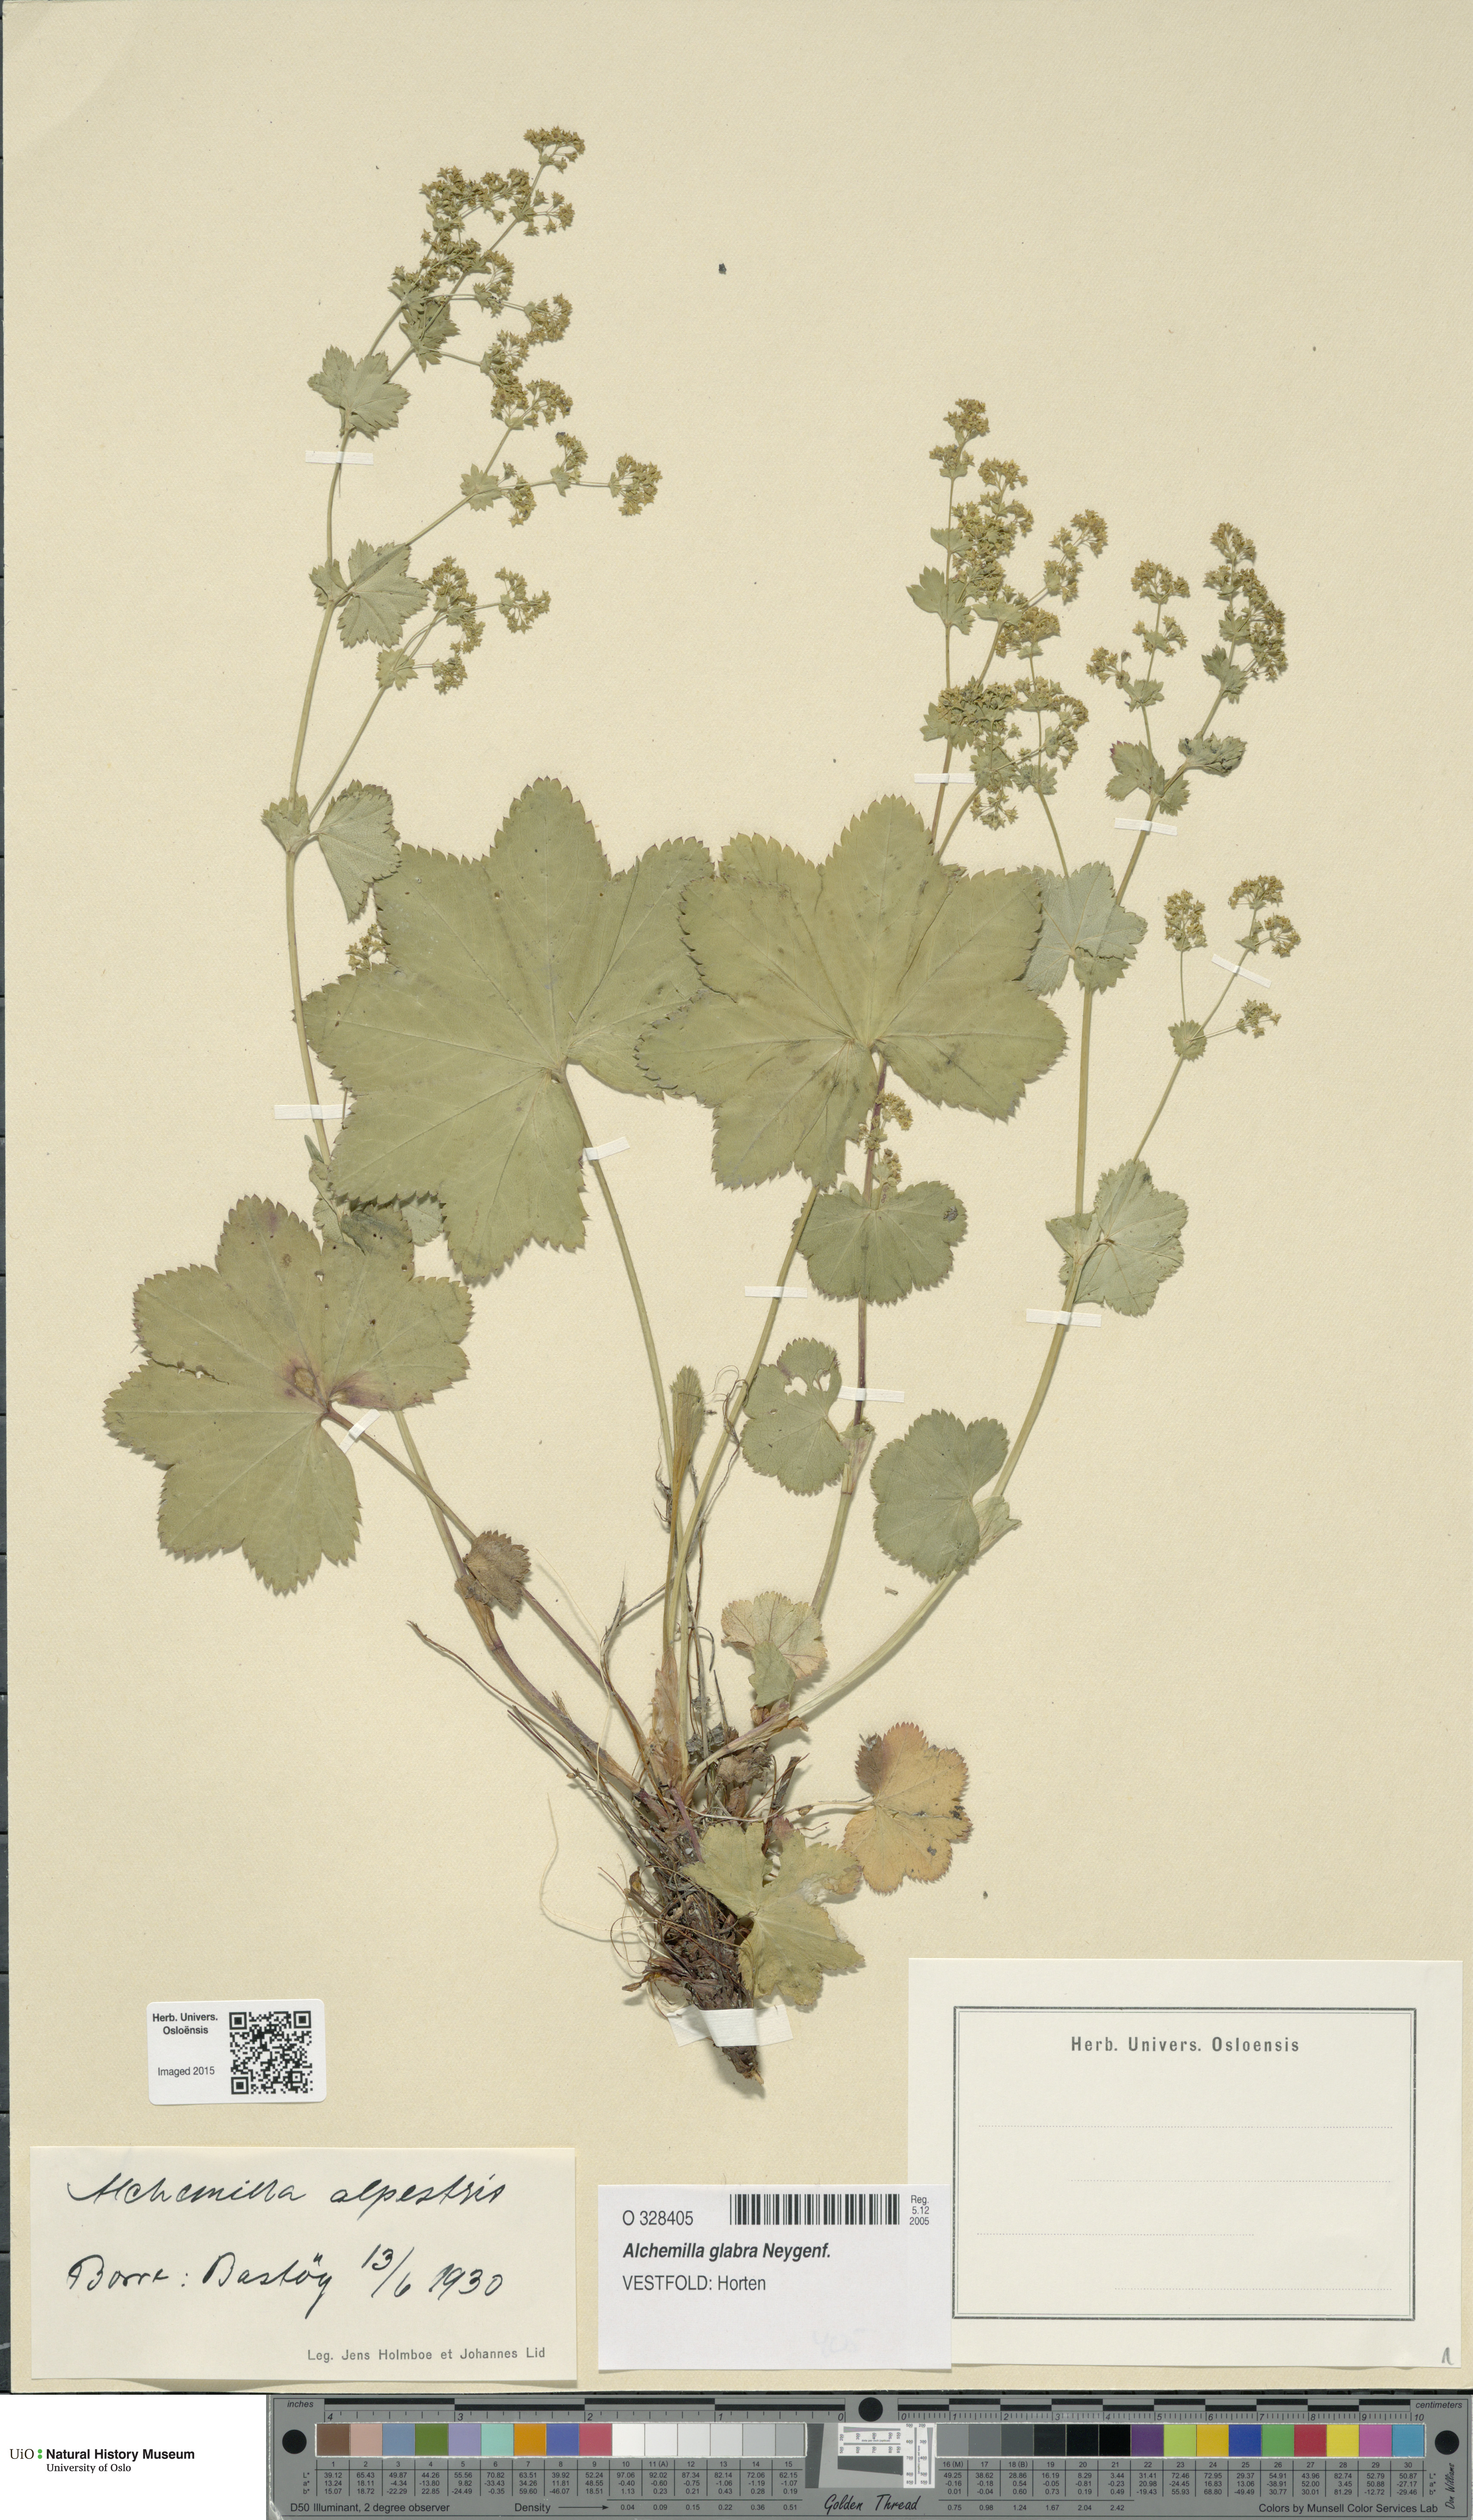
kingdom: Plantae
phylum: Tracheophyta
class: Magnoliopsida
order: Rosales
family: Rosaceae
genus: Alchemilla
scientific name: Alchemilla glabra
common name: Smooth lady's-mantle
